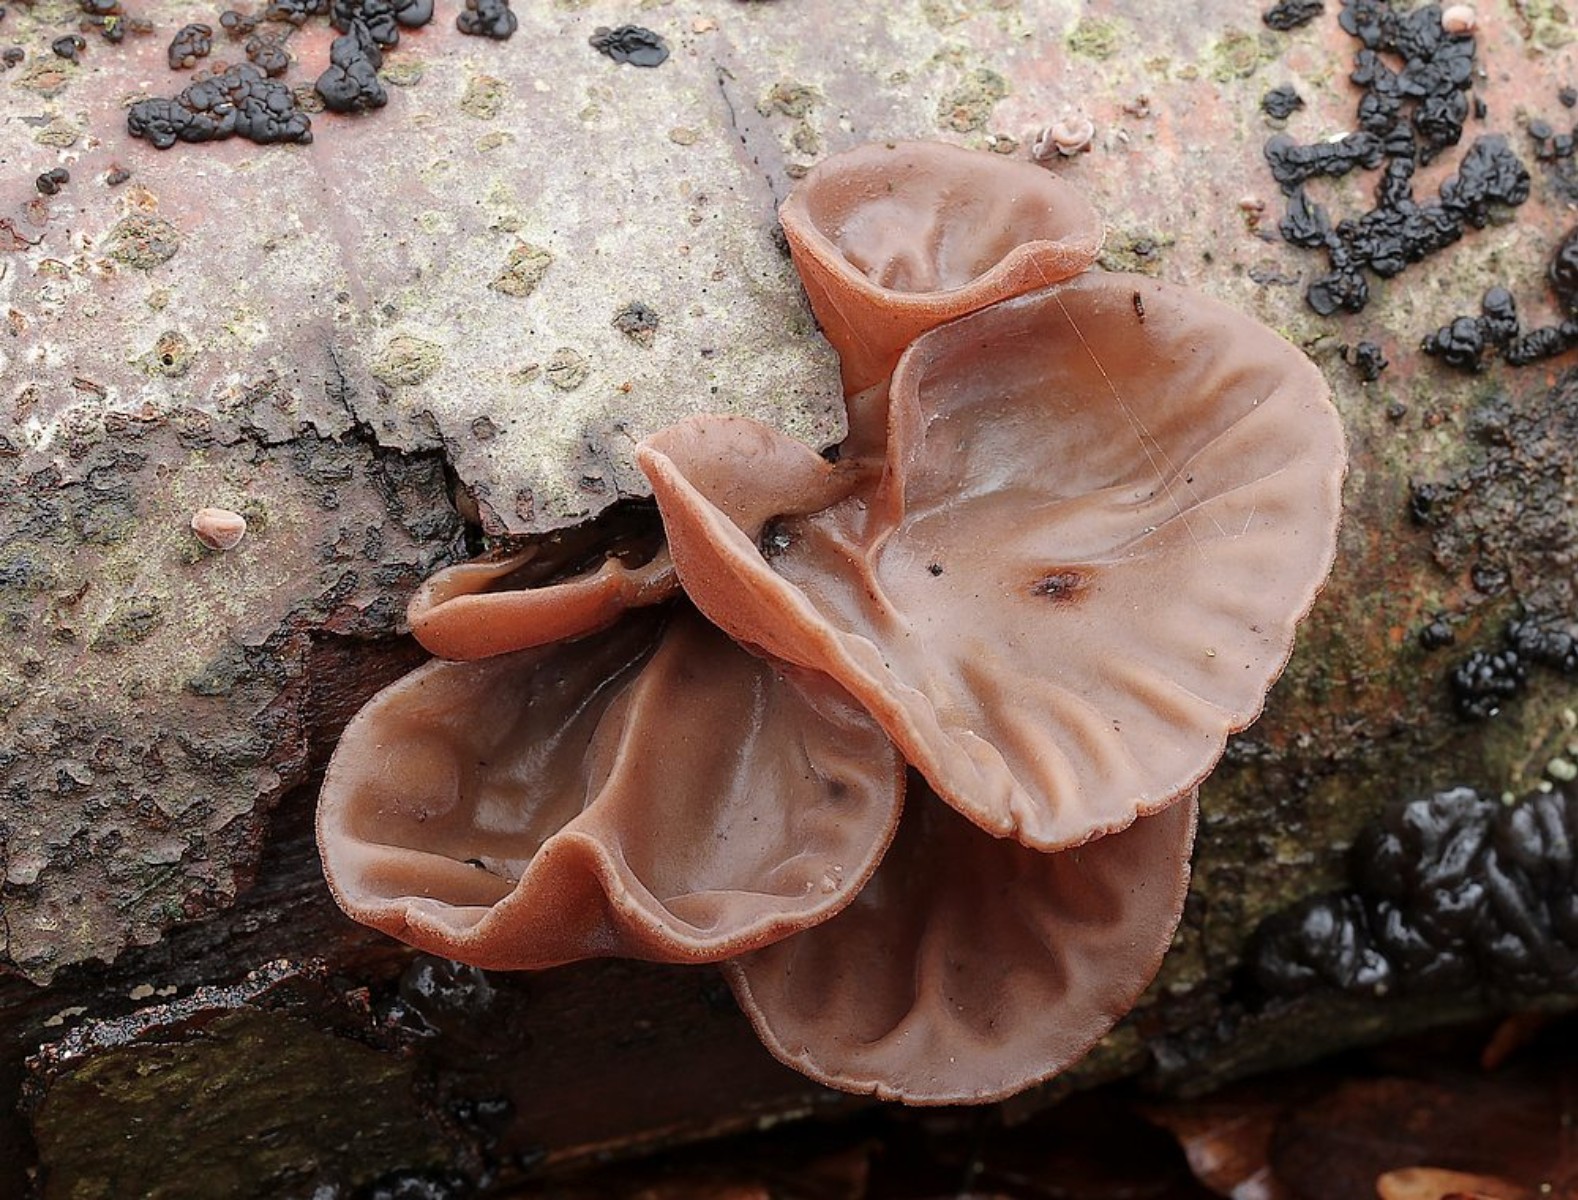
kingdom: Fungi
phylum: Basidiomycota
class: Agaricomycetes
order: Auriculariales
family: Auriculariaceae
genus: Auricularia
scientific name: Auricularia auricula-judae
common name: almindelig judasøre
